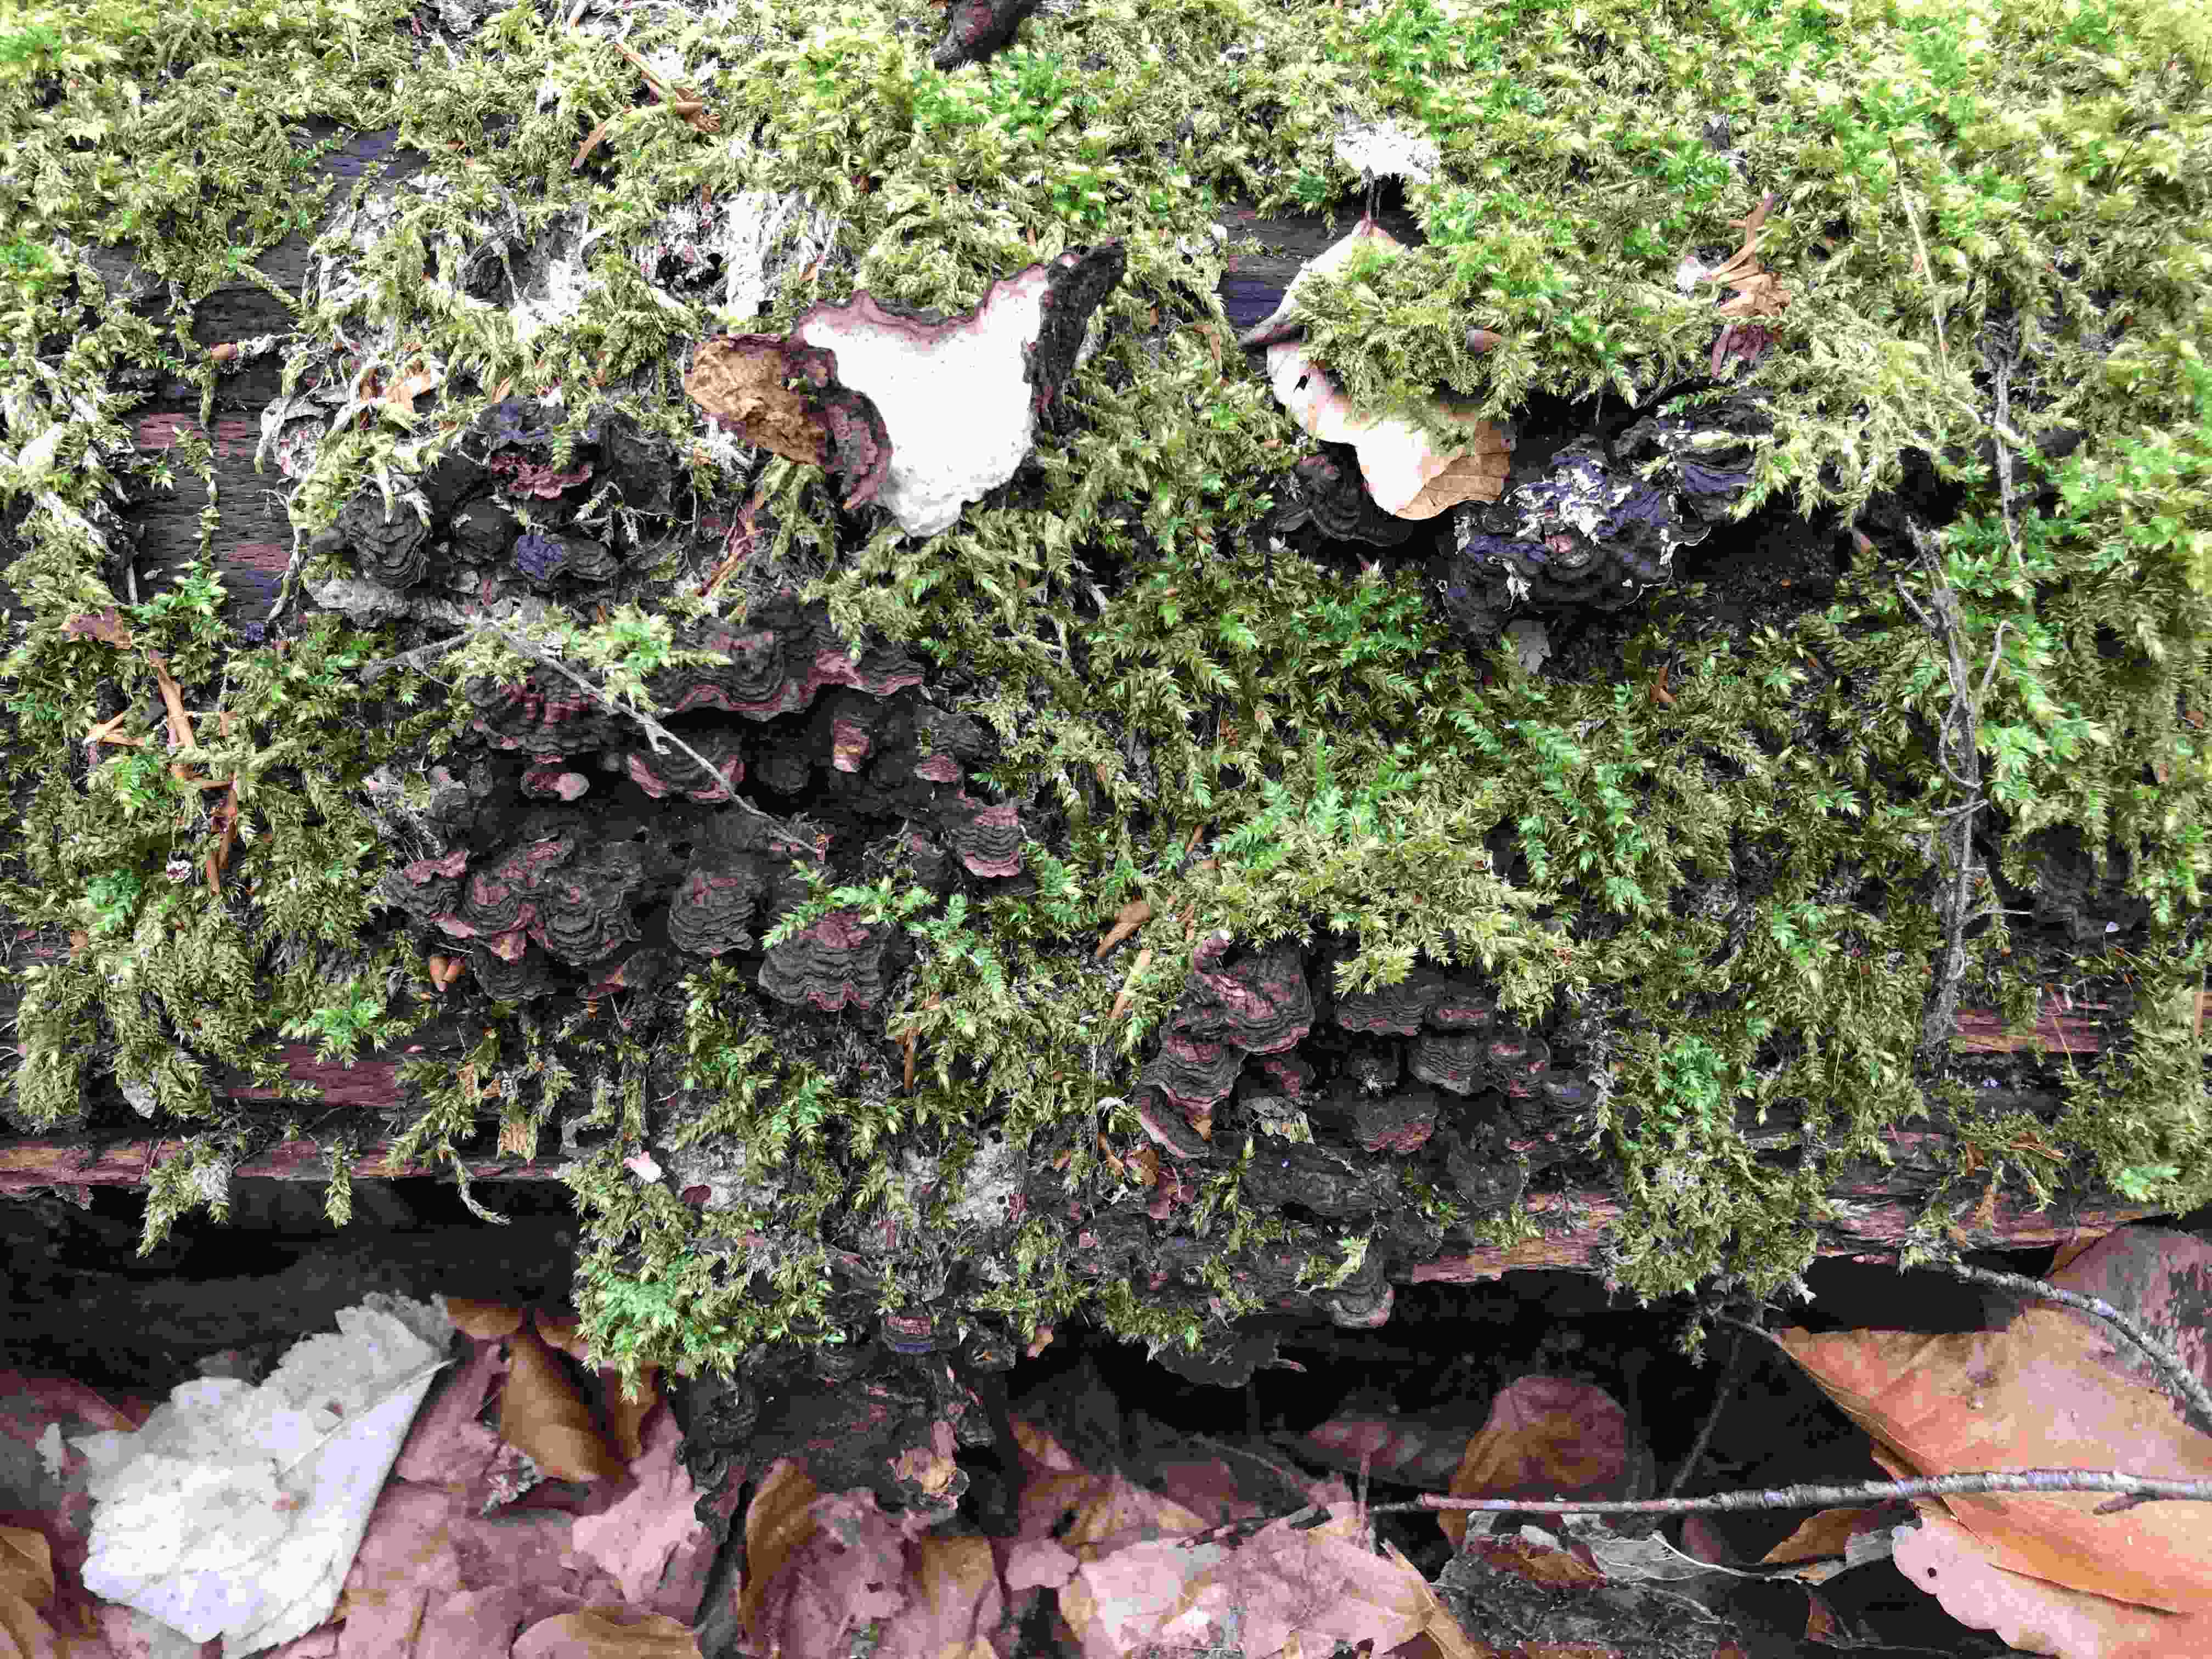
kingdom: Fungi
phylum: Basidiomycota
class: Agaricomycetes
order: Hymenochaetales
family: Hymenochaetaceae
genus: Phellinopsis
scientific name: Phellinopsis conchata
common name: pile-ildporesvamp
